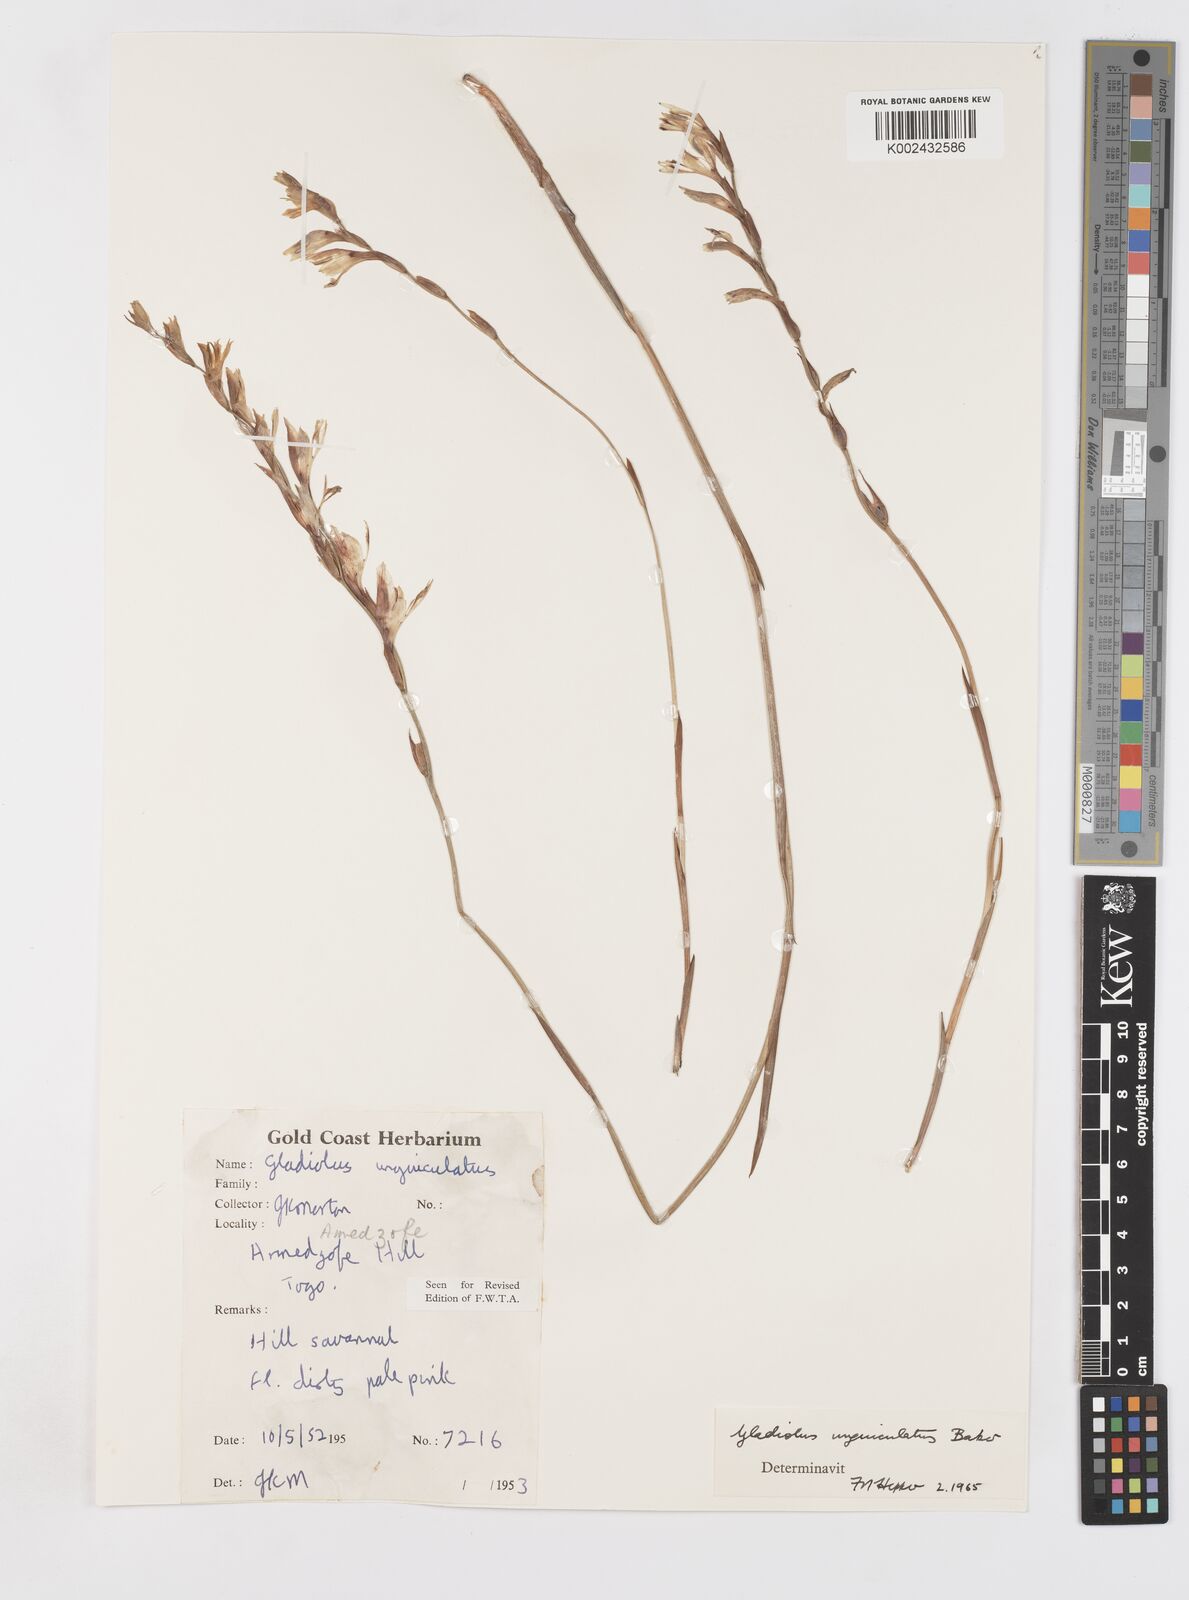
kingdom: Plantae
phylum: Tracheophyta
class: Liliopsida
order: Asparagales
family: Iridaceae
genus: Gladiolus
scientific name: Gladiolus atropurpureus
